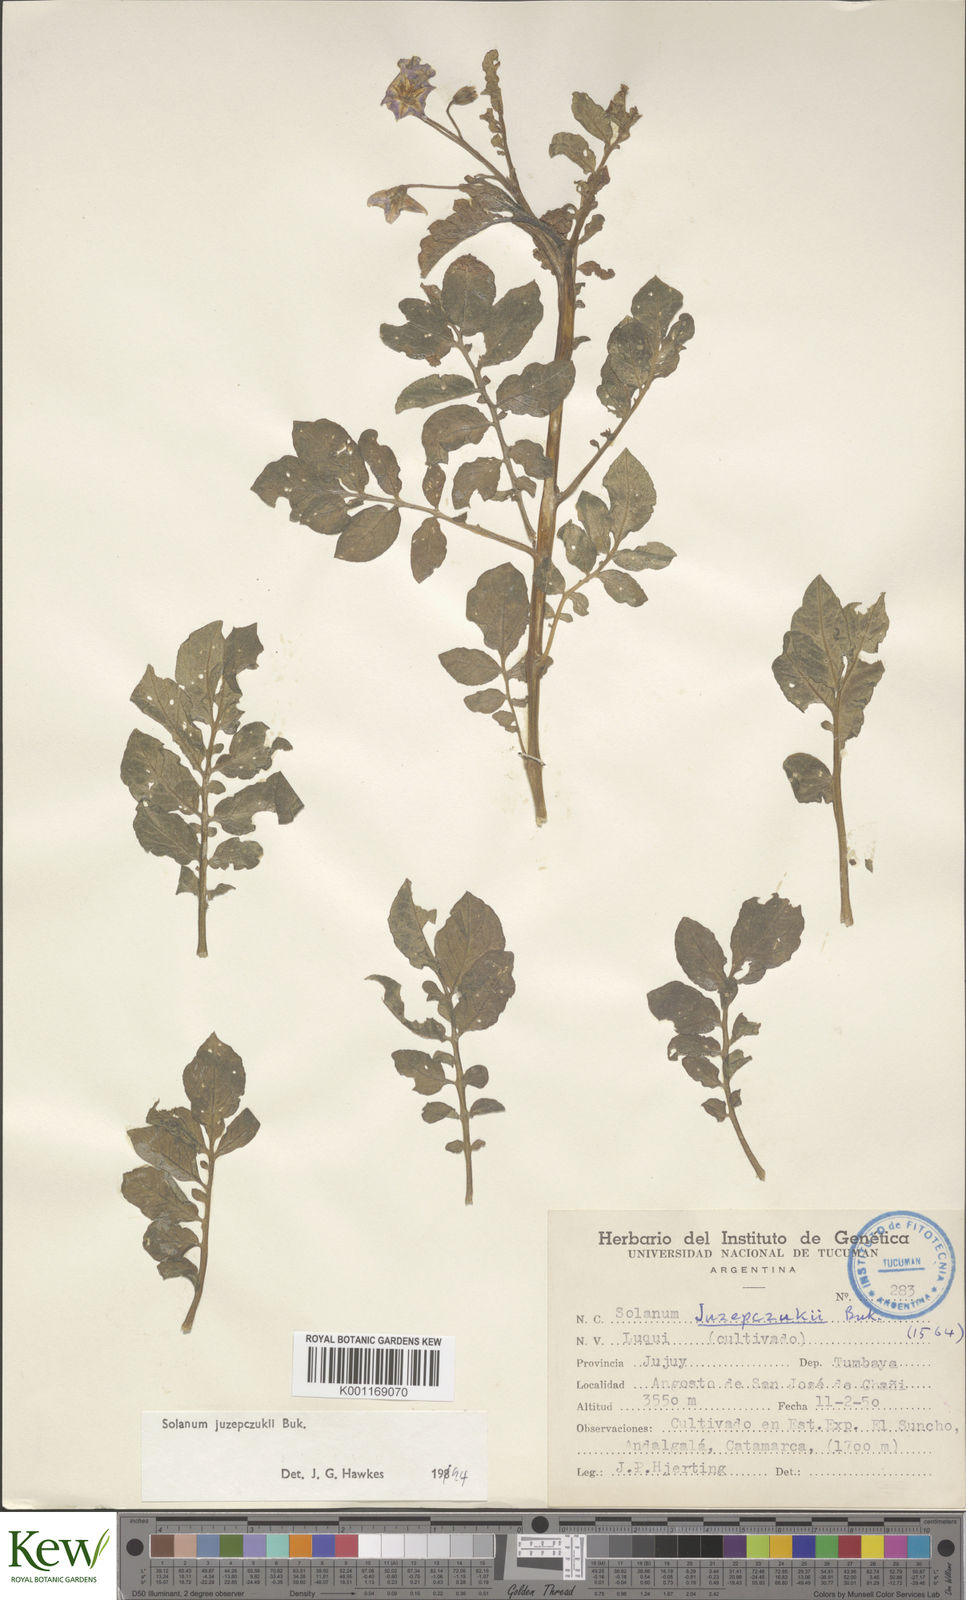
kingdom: Plantae
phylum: Tracheophyta
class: Magnoliopsida
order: Solanales
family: Solanaceae
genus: Solanum
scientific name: Solanum juzepczukii
